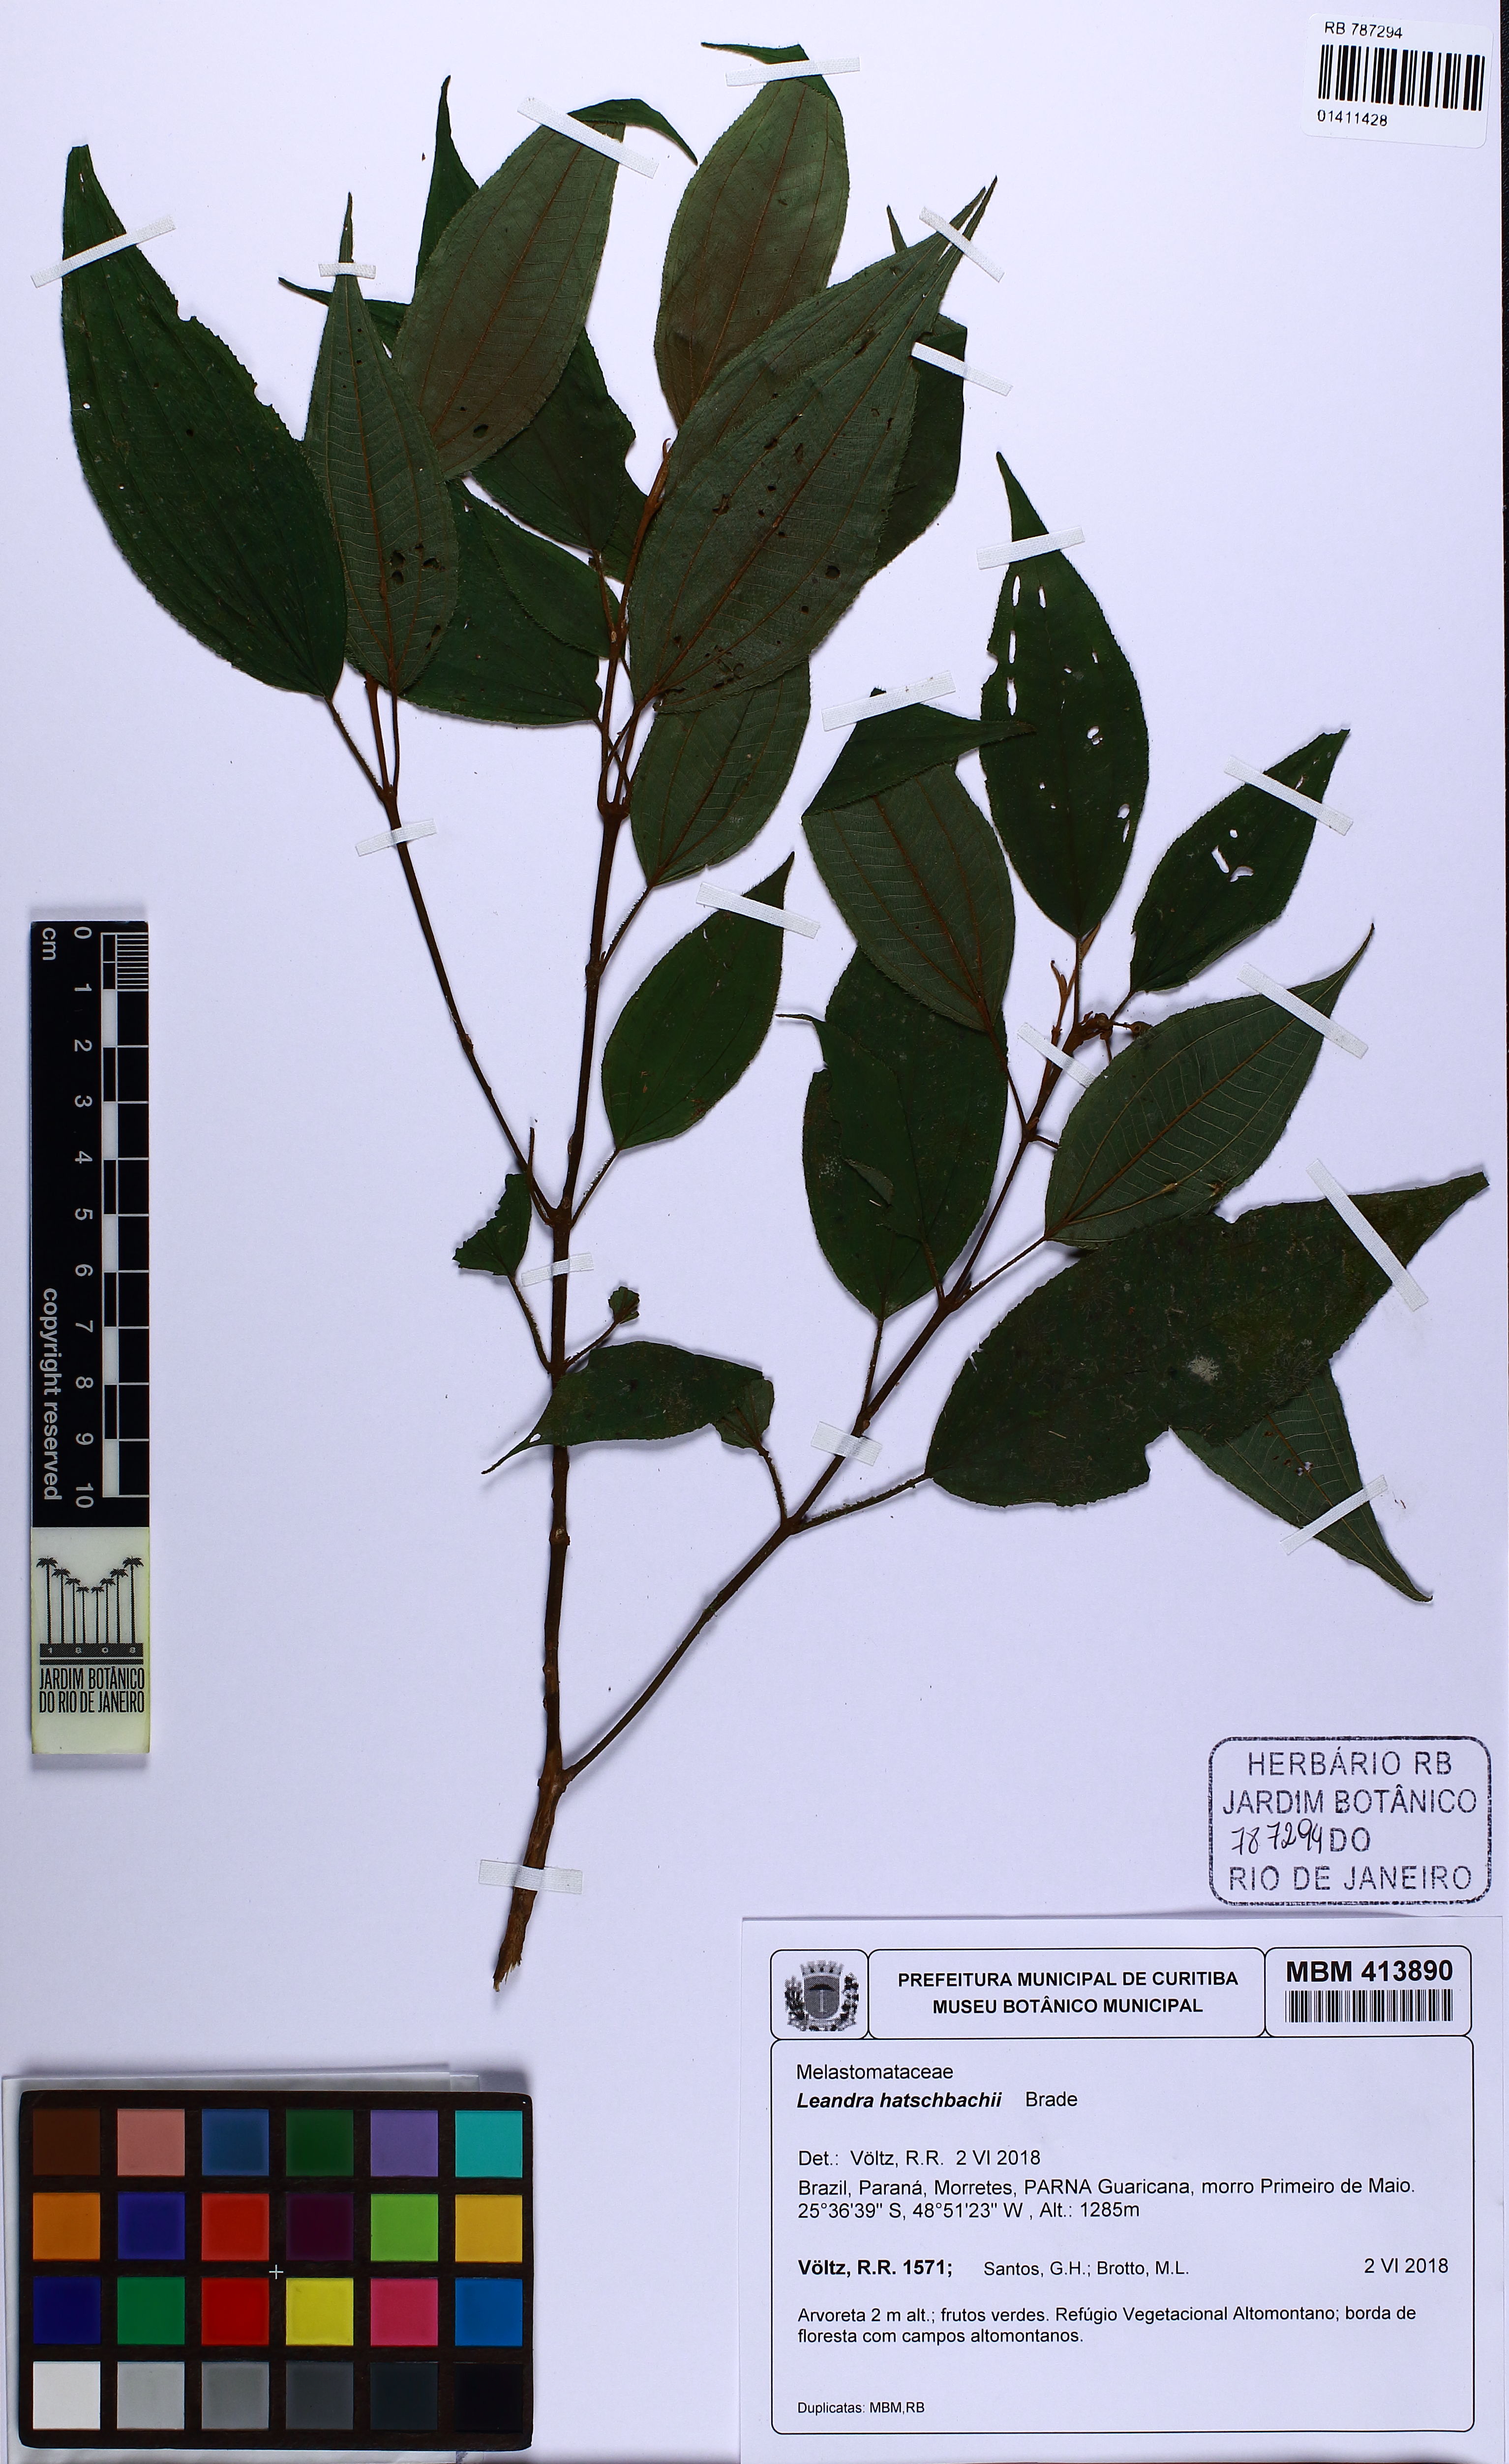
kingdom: Plantae
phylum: Tracheophyta
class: Magnoliopsida
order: Myrtales
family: Melastomataceae
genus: Miconia
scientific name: Miconia hatschbachii
